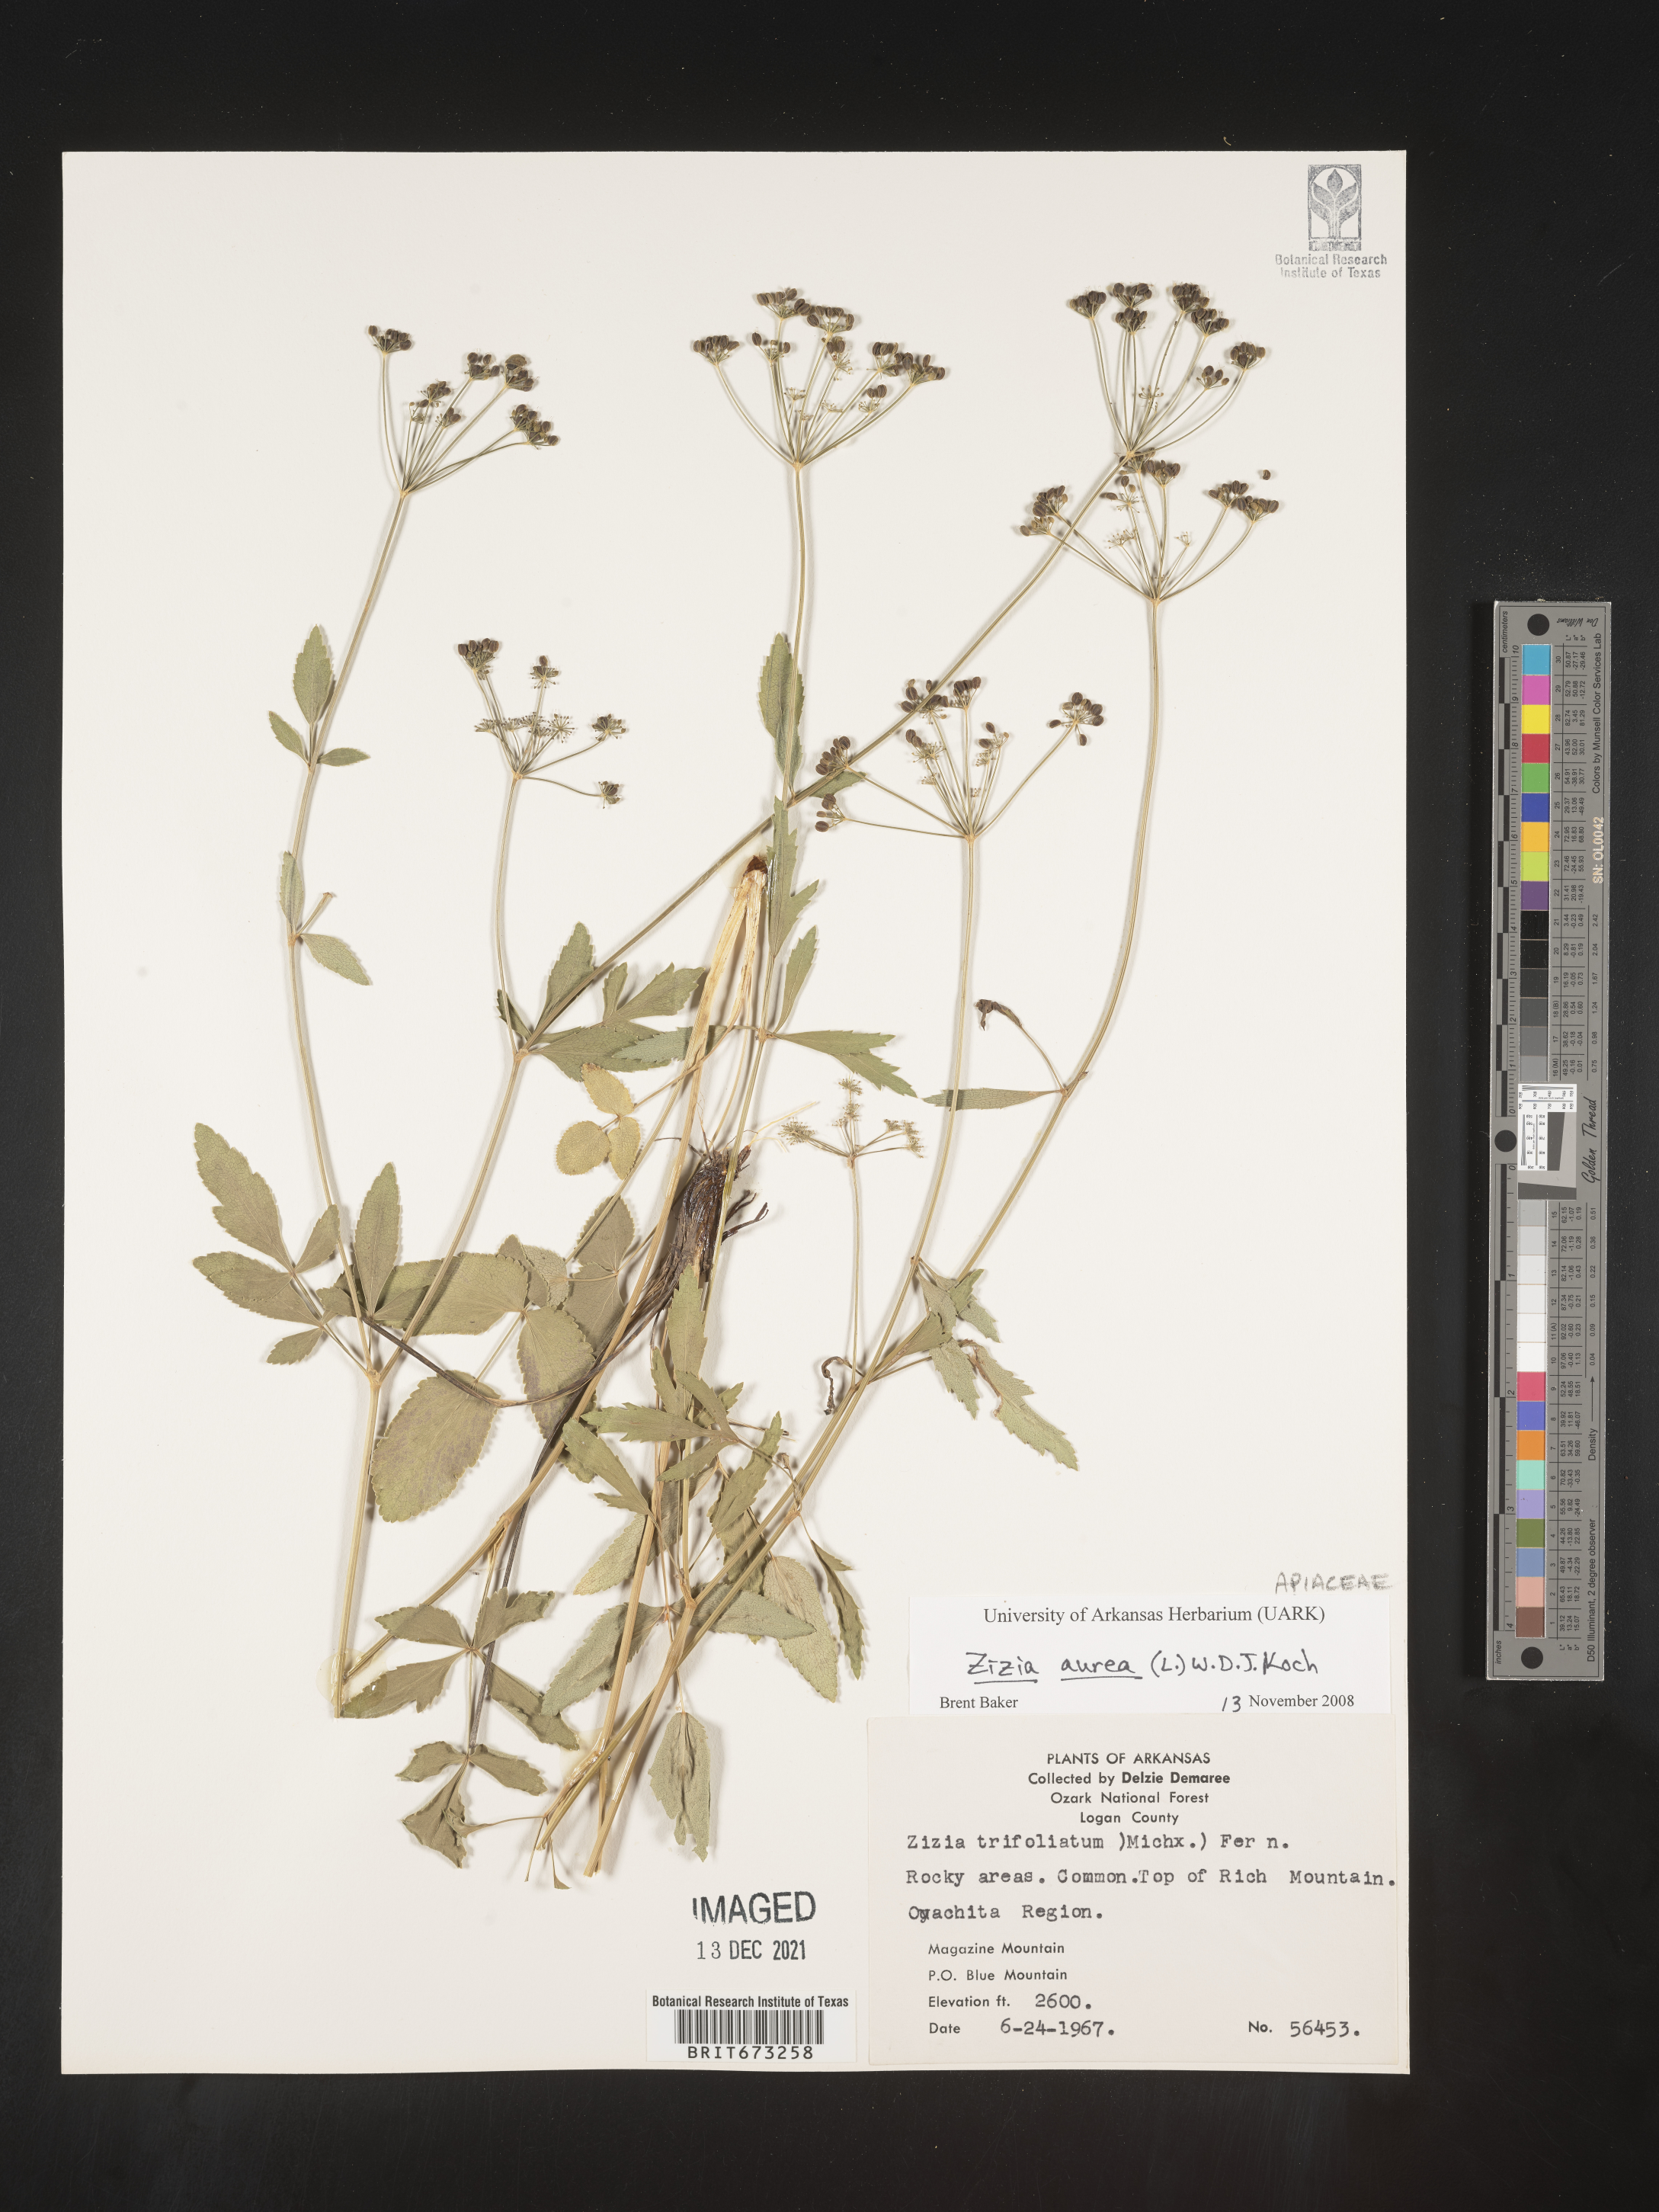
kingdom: Plantae
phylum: Tracheophyta
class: Magnoliopsida
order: Apiales
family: Apiaceae
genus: Zizia
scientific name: Zizia aurea
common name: Golden alexanders
